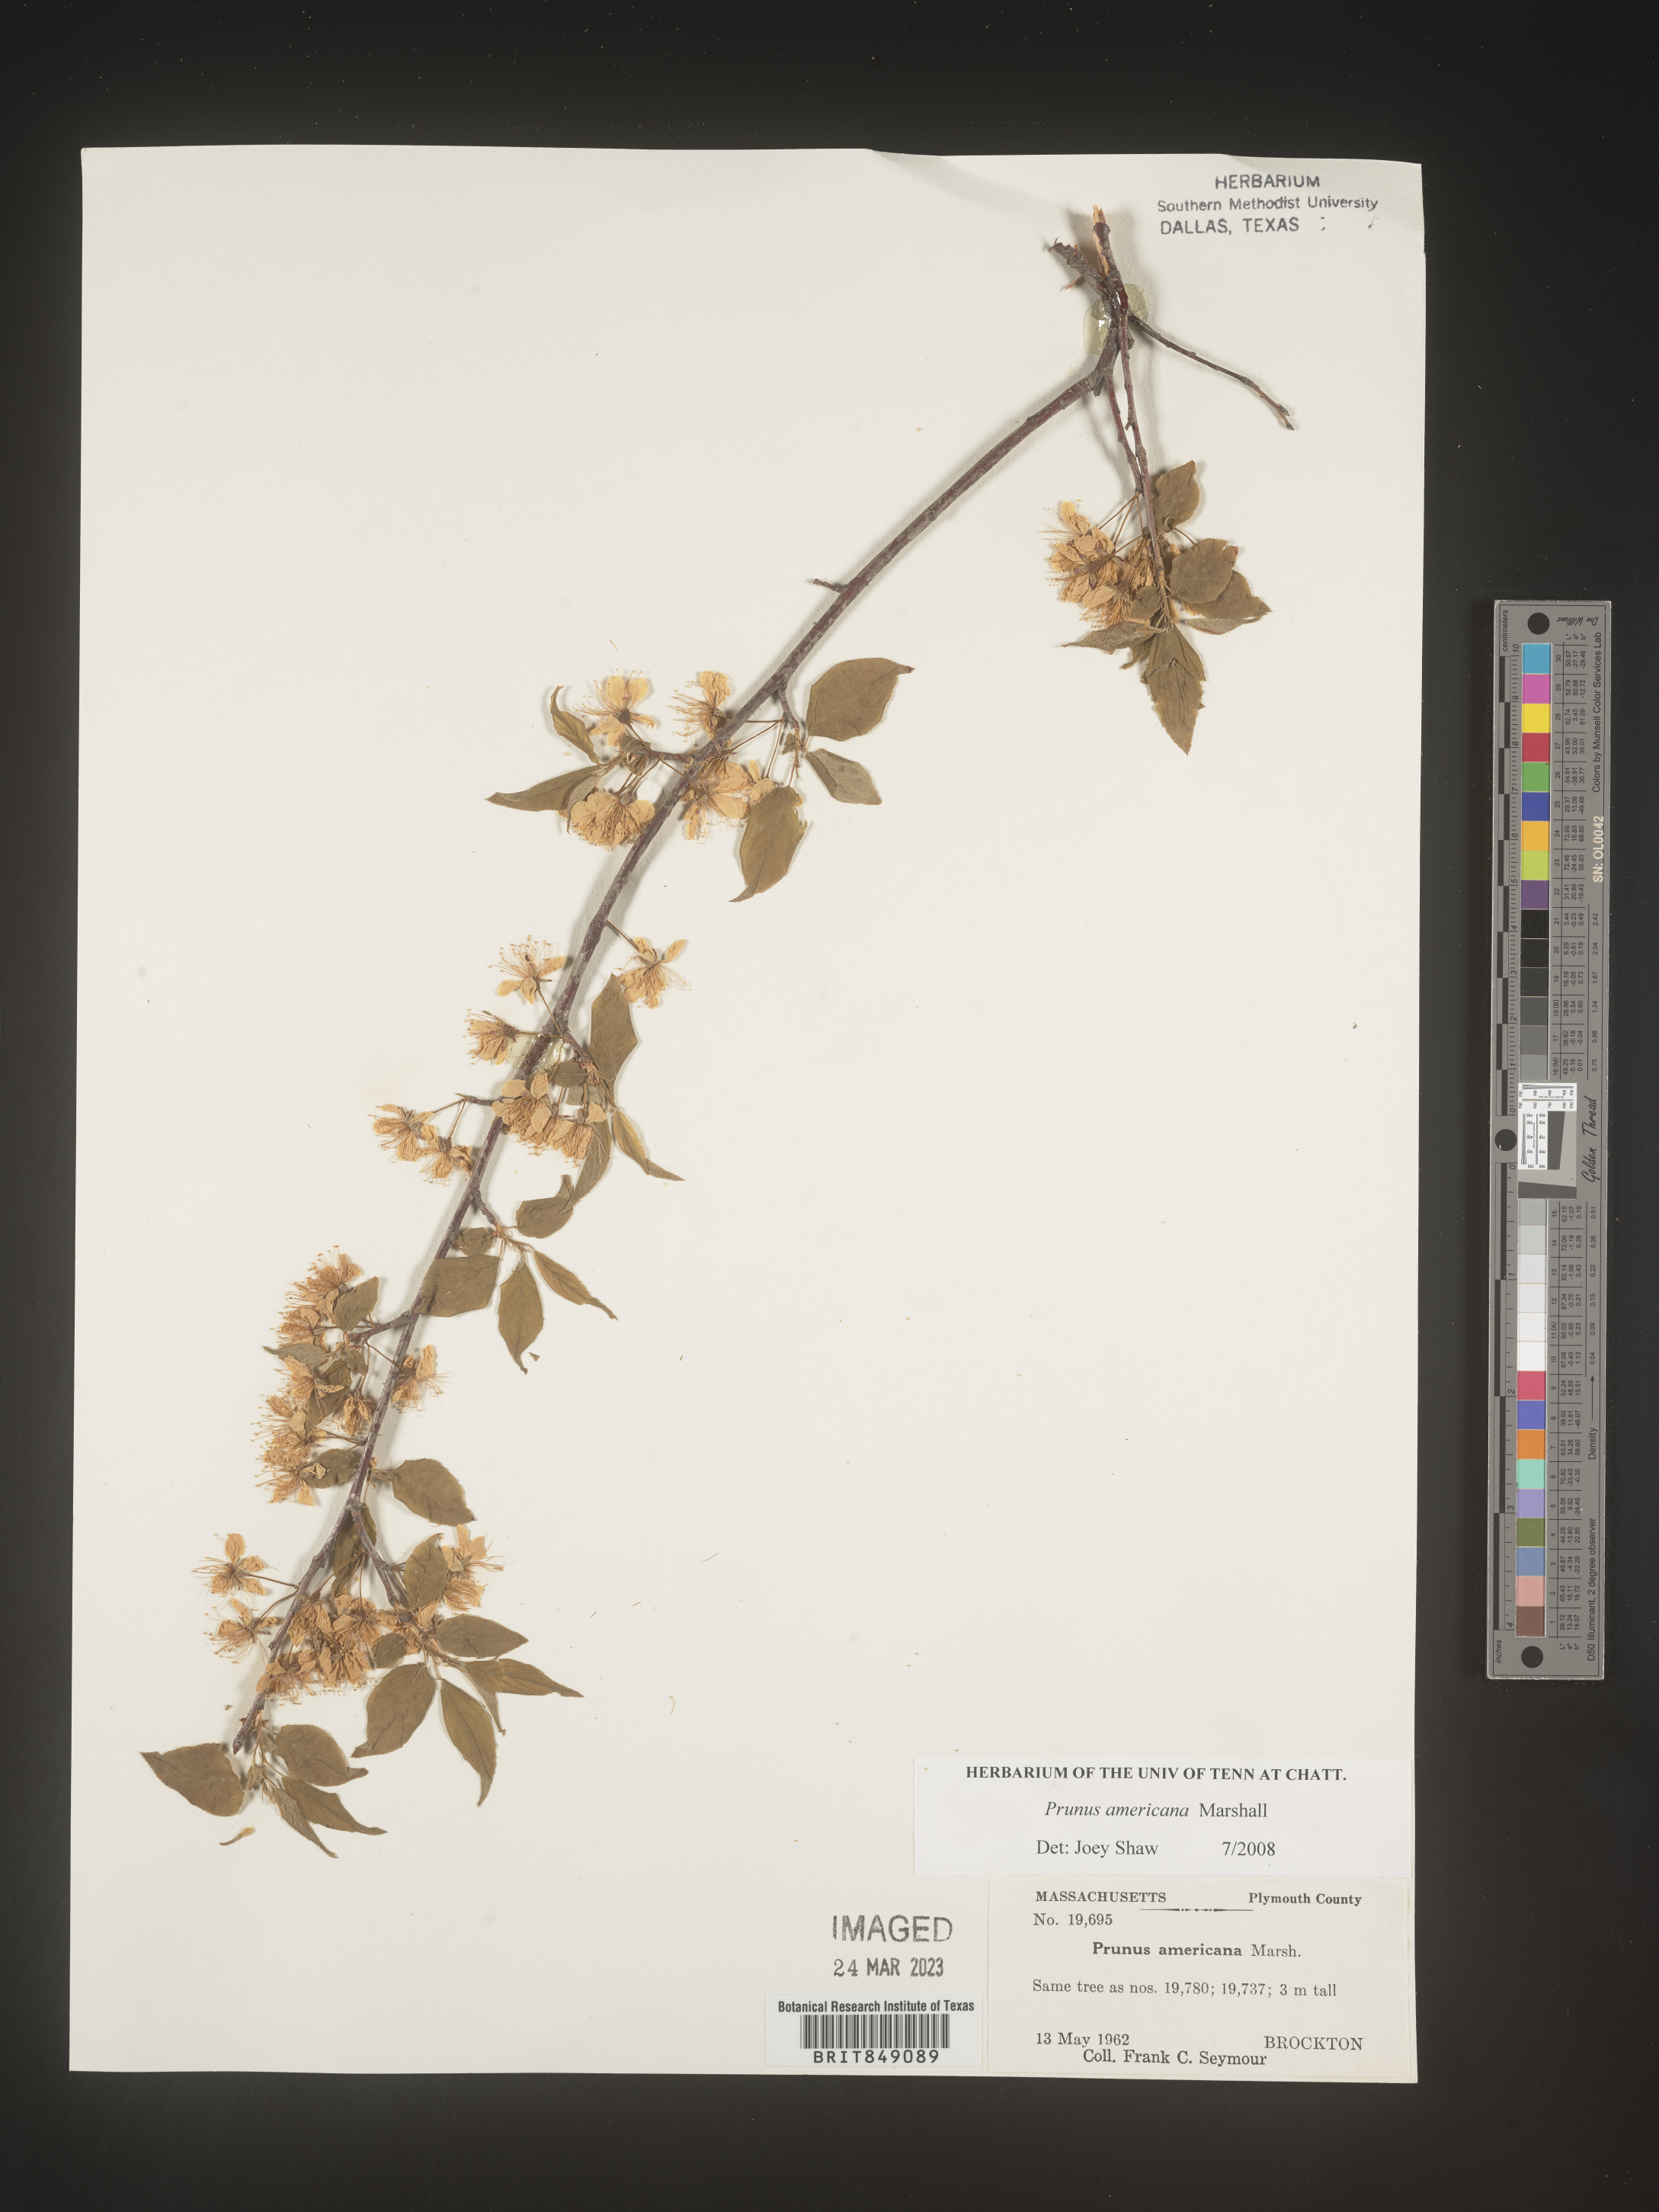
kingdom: Plantae
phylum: Tracheophyta
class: Magnoliopsida
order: Rosales
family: Rosaceae
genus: Prunus
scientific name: Prunus americana
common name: American plum
